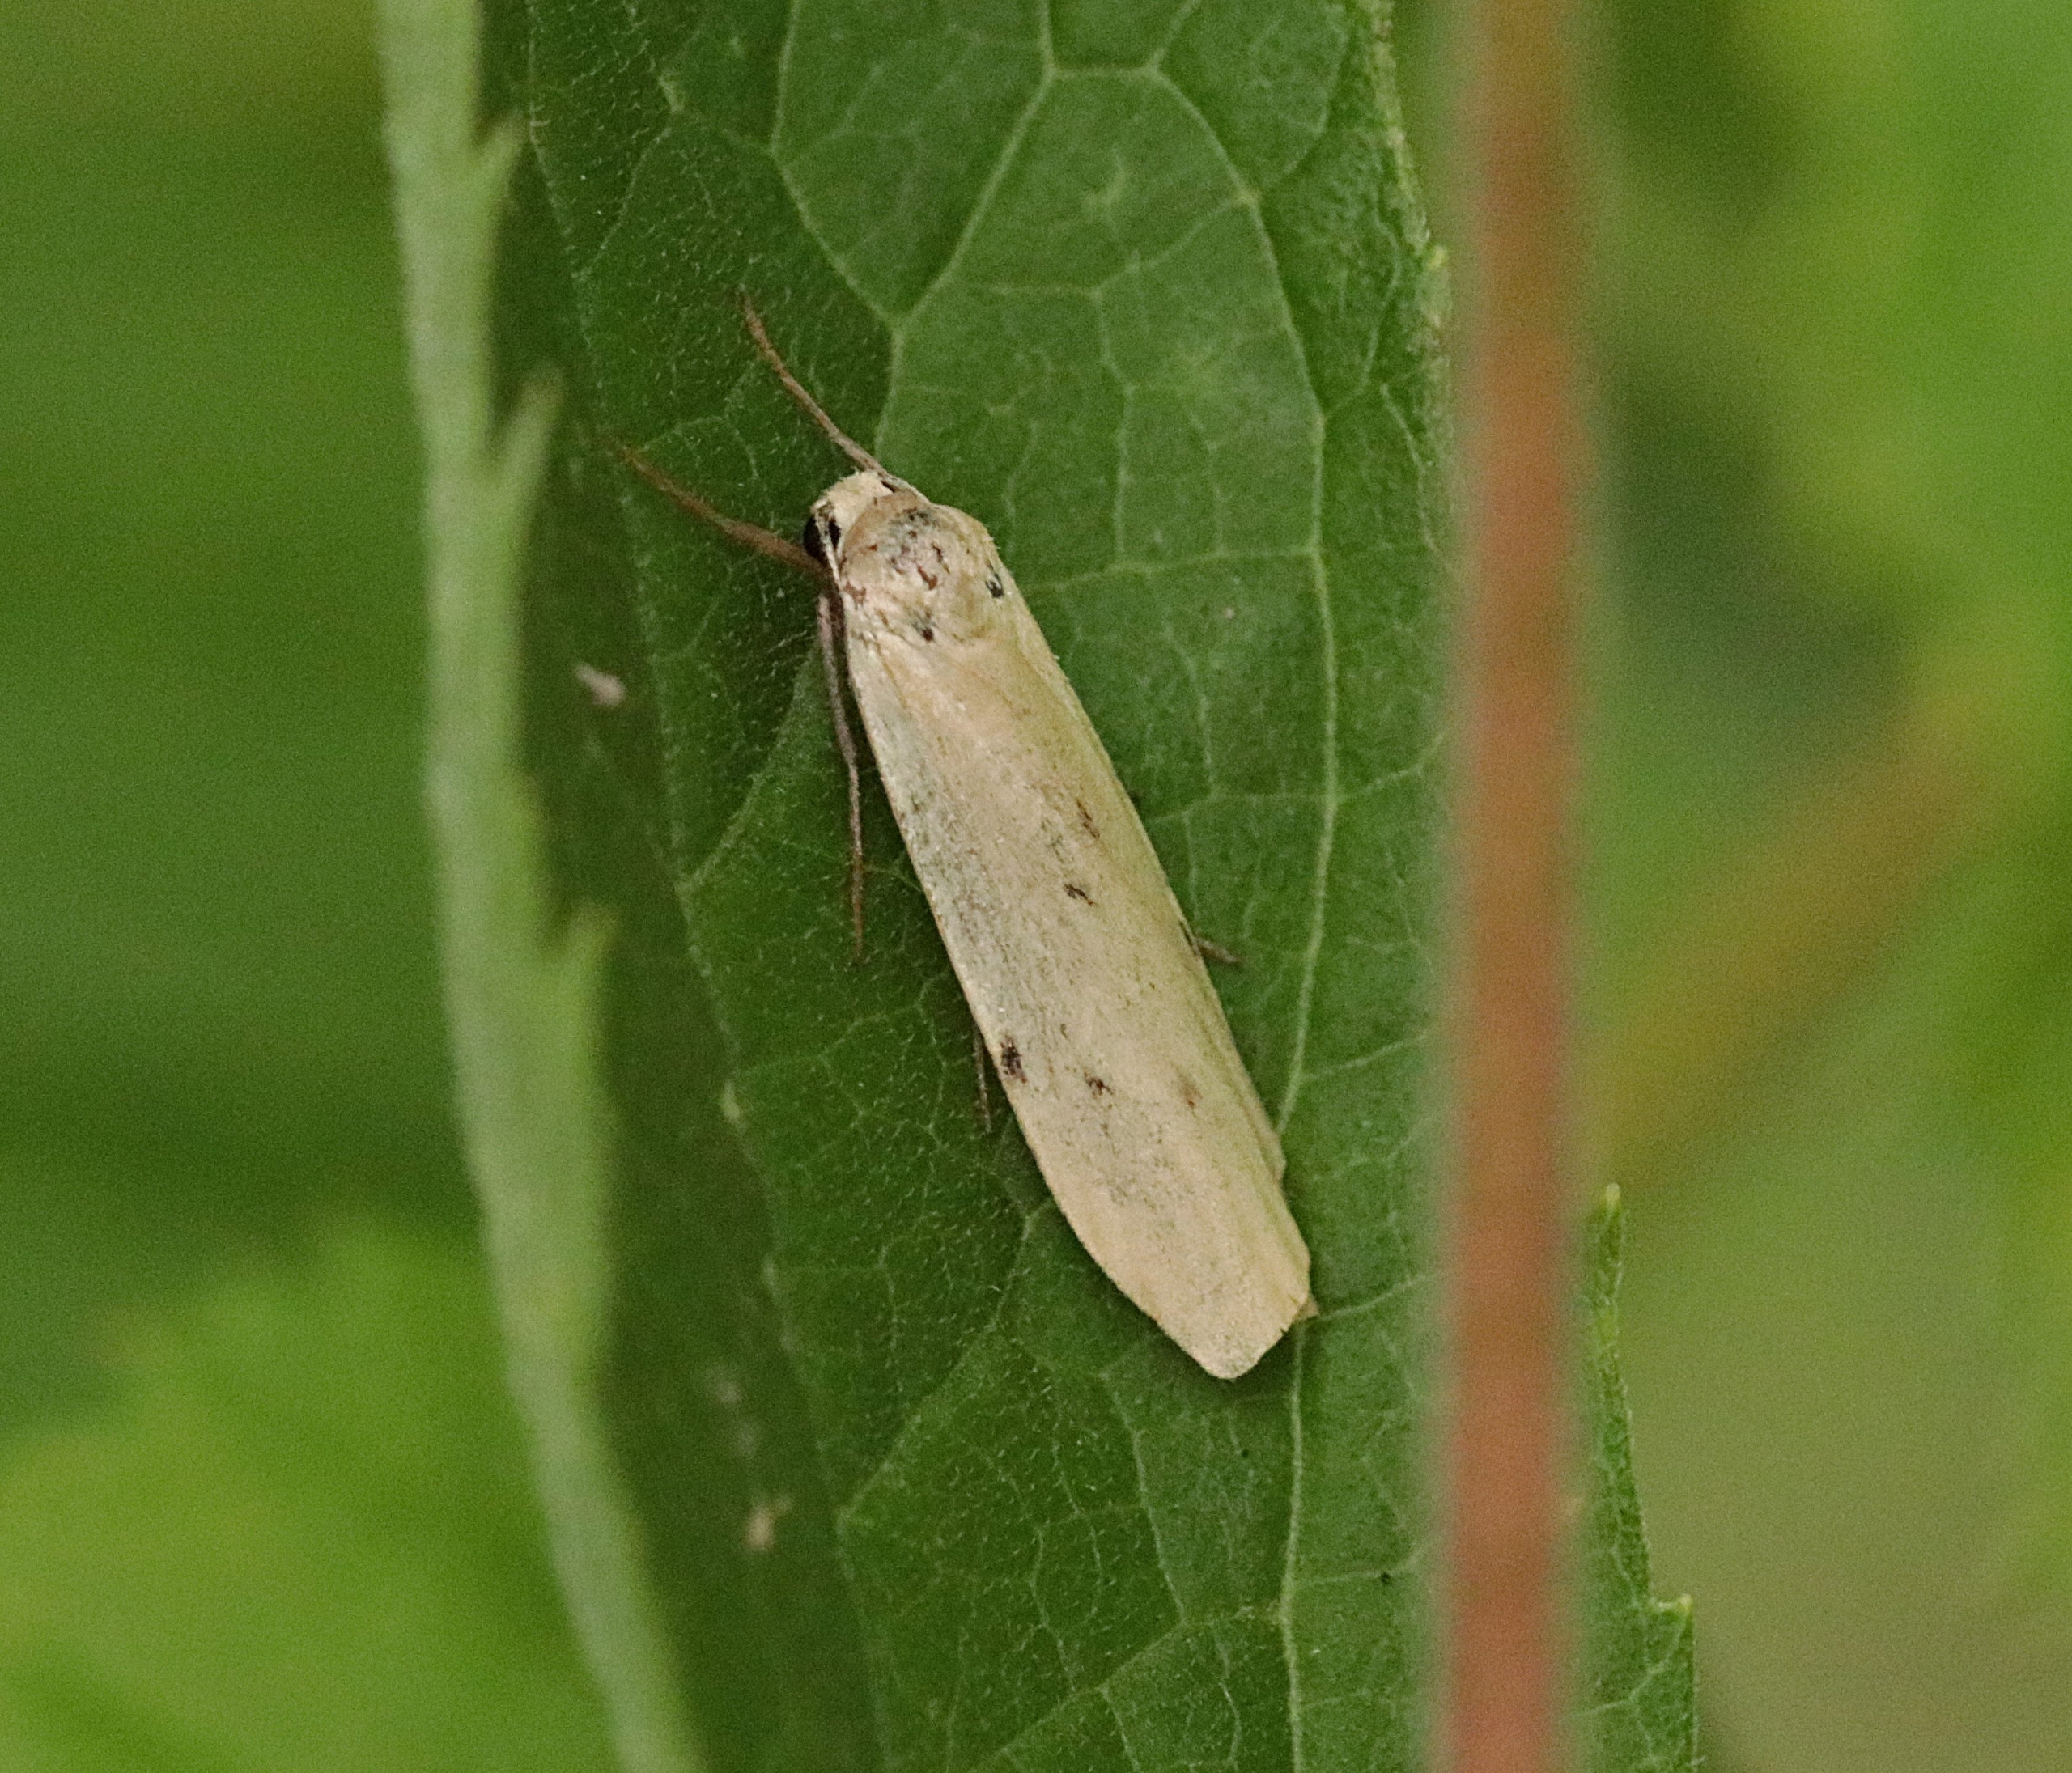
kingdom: Animalia
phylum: Arthropoda
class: Insecta
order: Lepidoptera
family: Erebidae
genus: Pelosia
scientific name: Pelosia muscerda
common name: Prikket lavspinder
